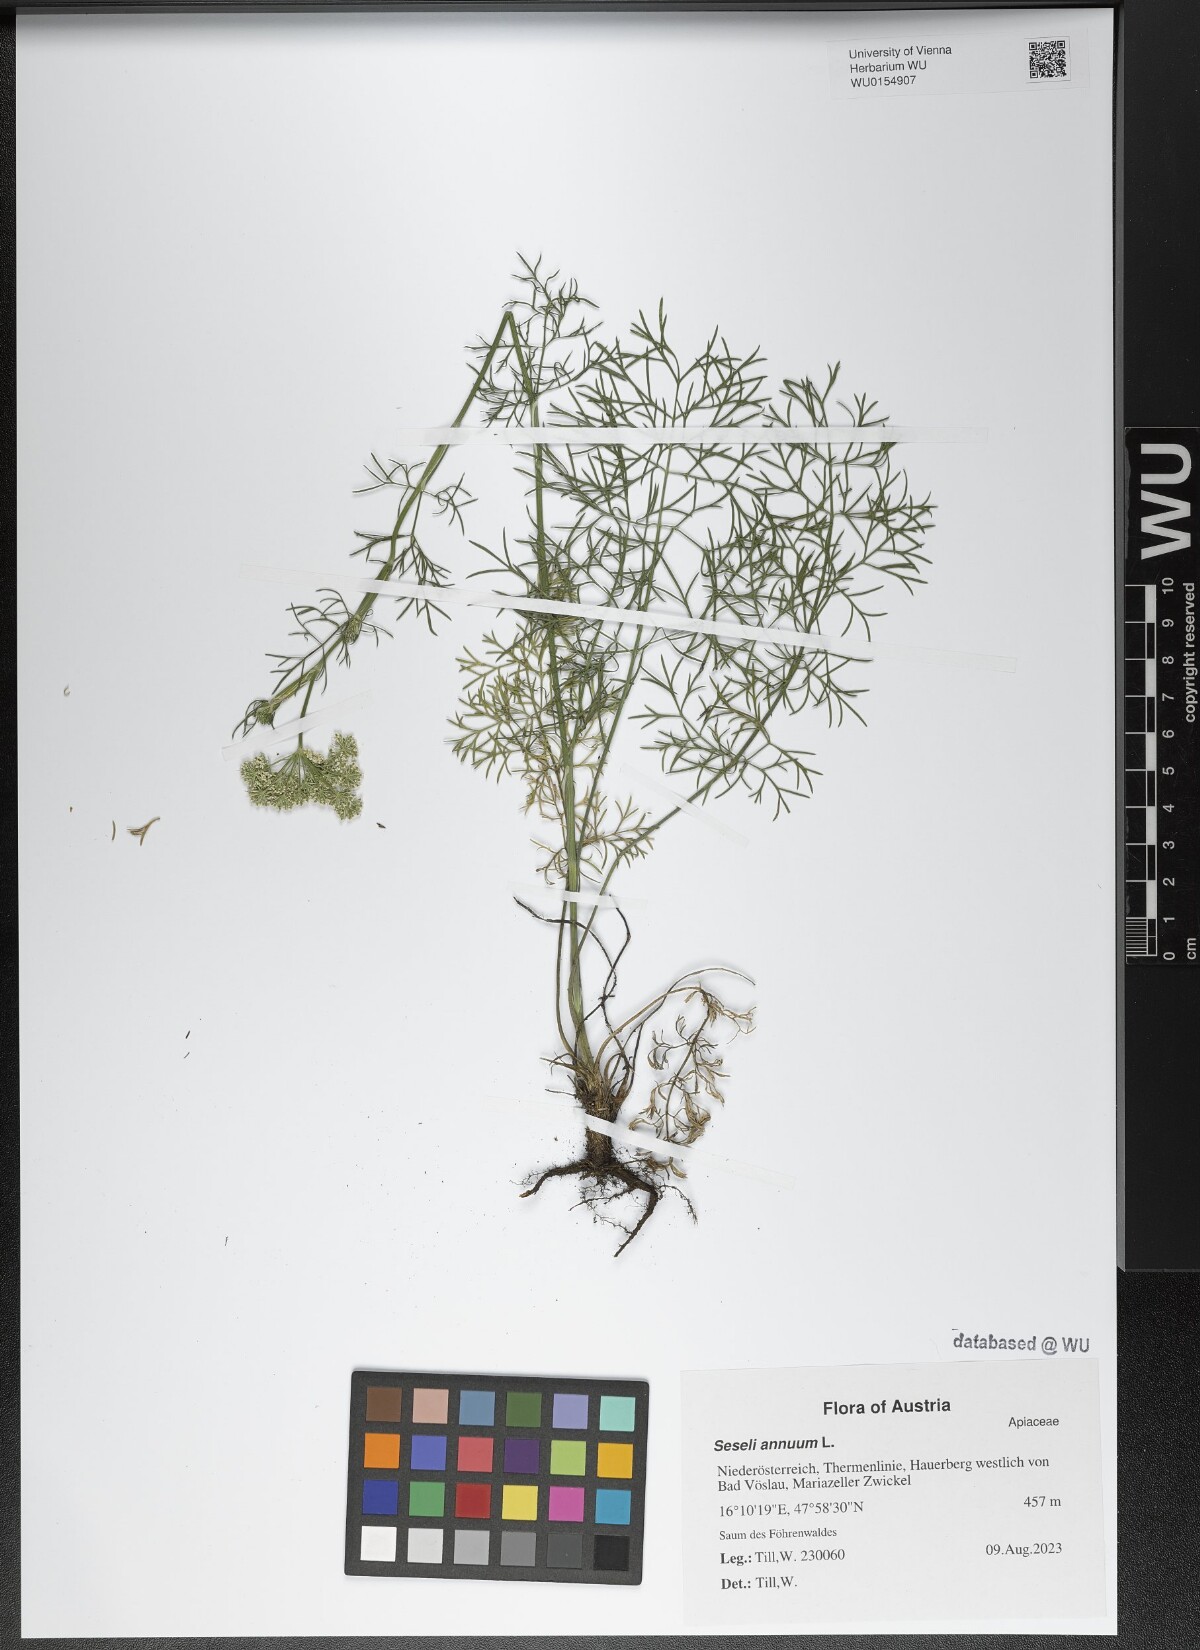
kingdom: Plantae
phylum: Tracheophyta
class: Magnoliopsida
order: Apiales
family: Apiaceae
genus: Seseli
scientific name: Seseli annuum
